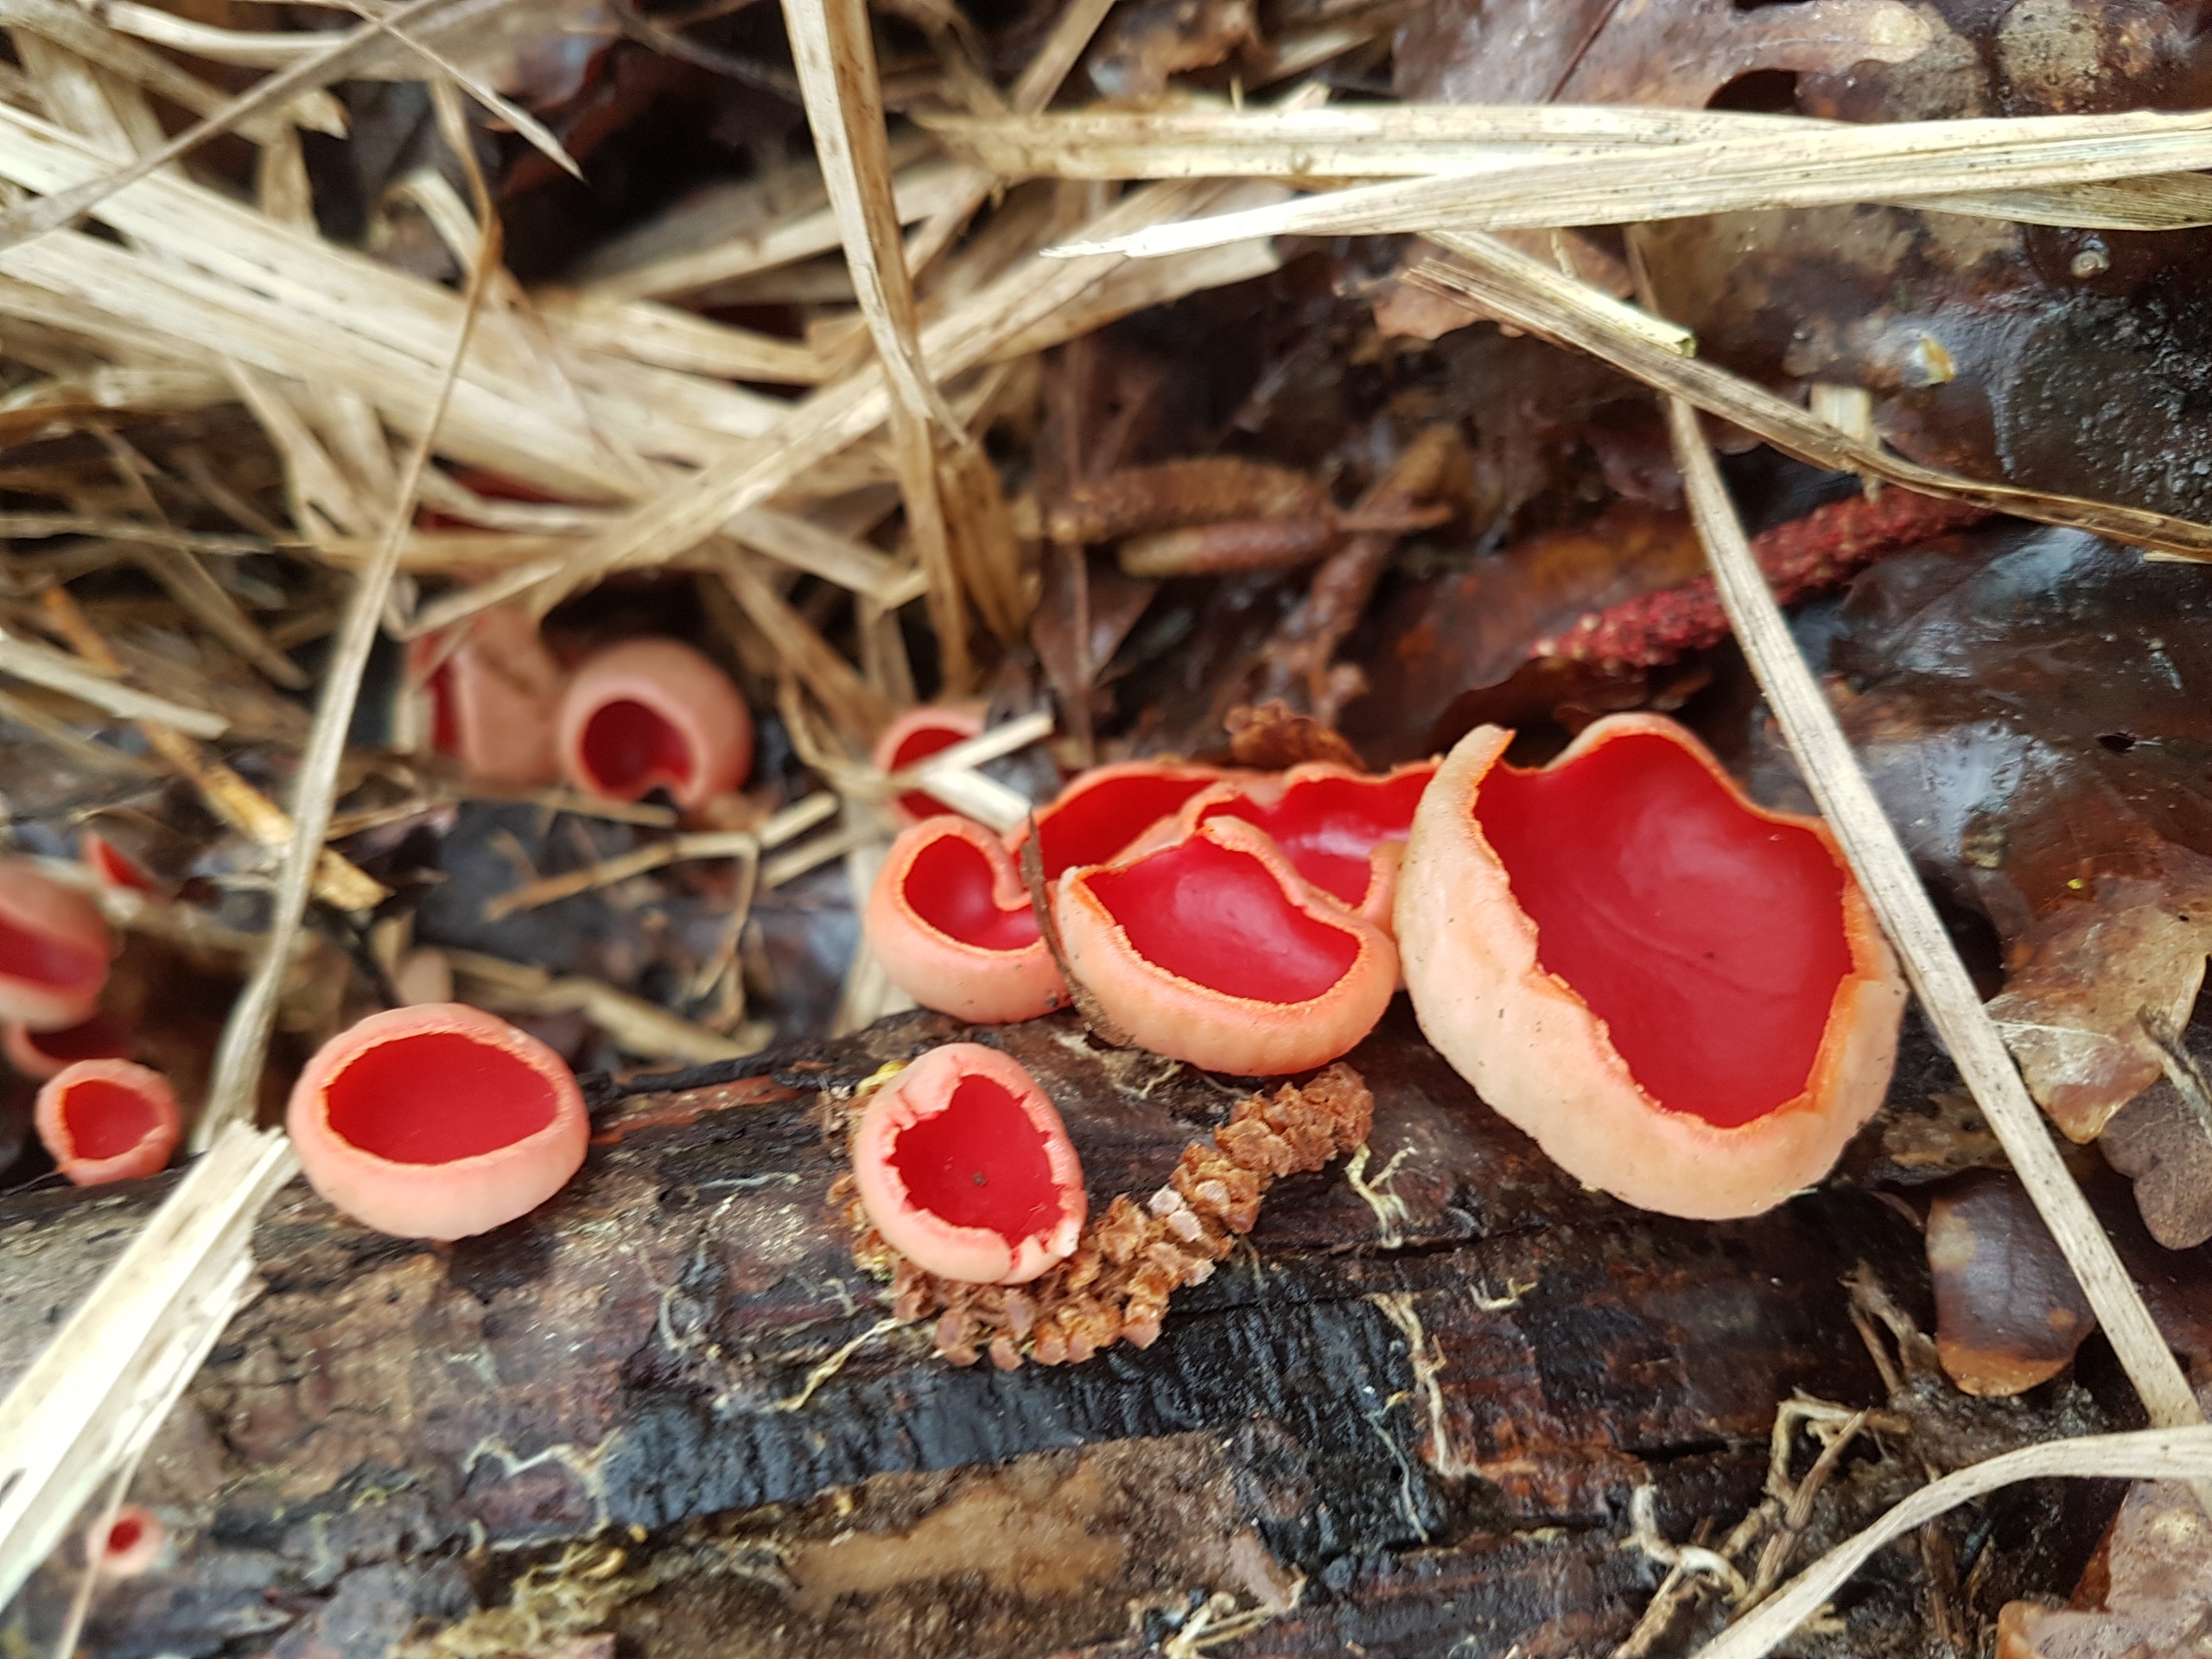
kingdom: Fungi
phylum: Ascomycota
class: Pezizomycetes
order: Pezizales
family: Sarcoscyphaceae
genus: Sarcoscypha
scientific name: Sarcoscypha austriaca
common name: Krølhåret pragtbæger
